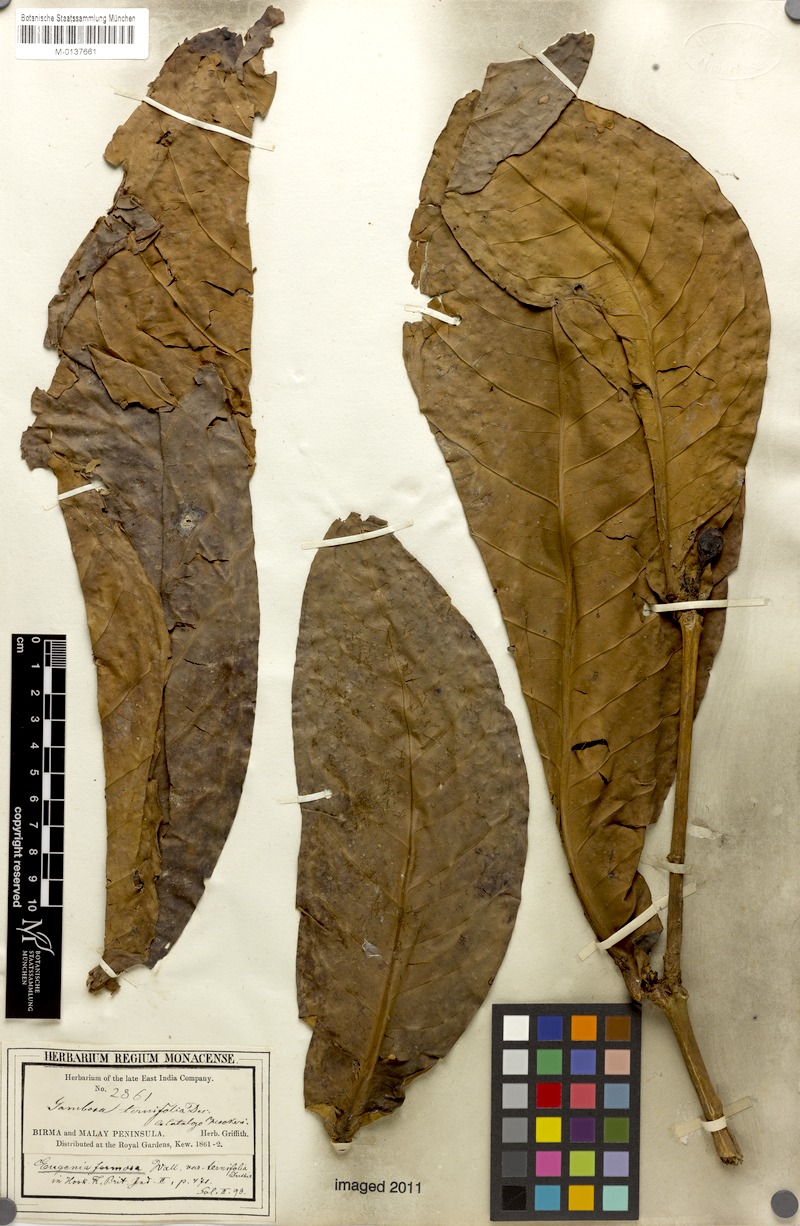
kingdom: Plantae
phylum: Tracheophyta
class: Magnoliopsida
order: Myrtales
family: Myrtaceae
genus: Syzygium
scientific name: Syzygium formosum
